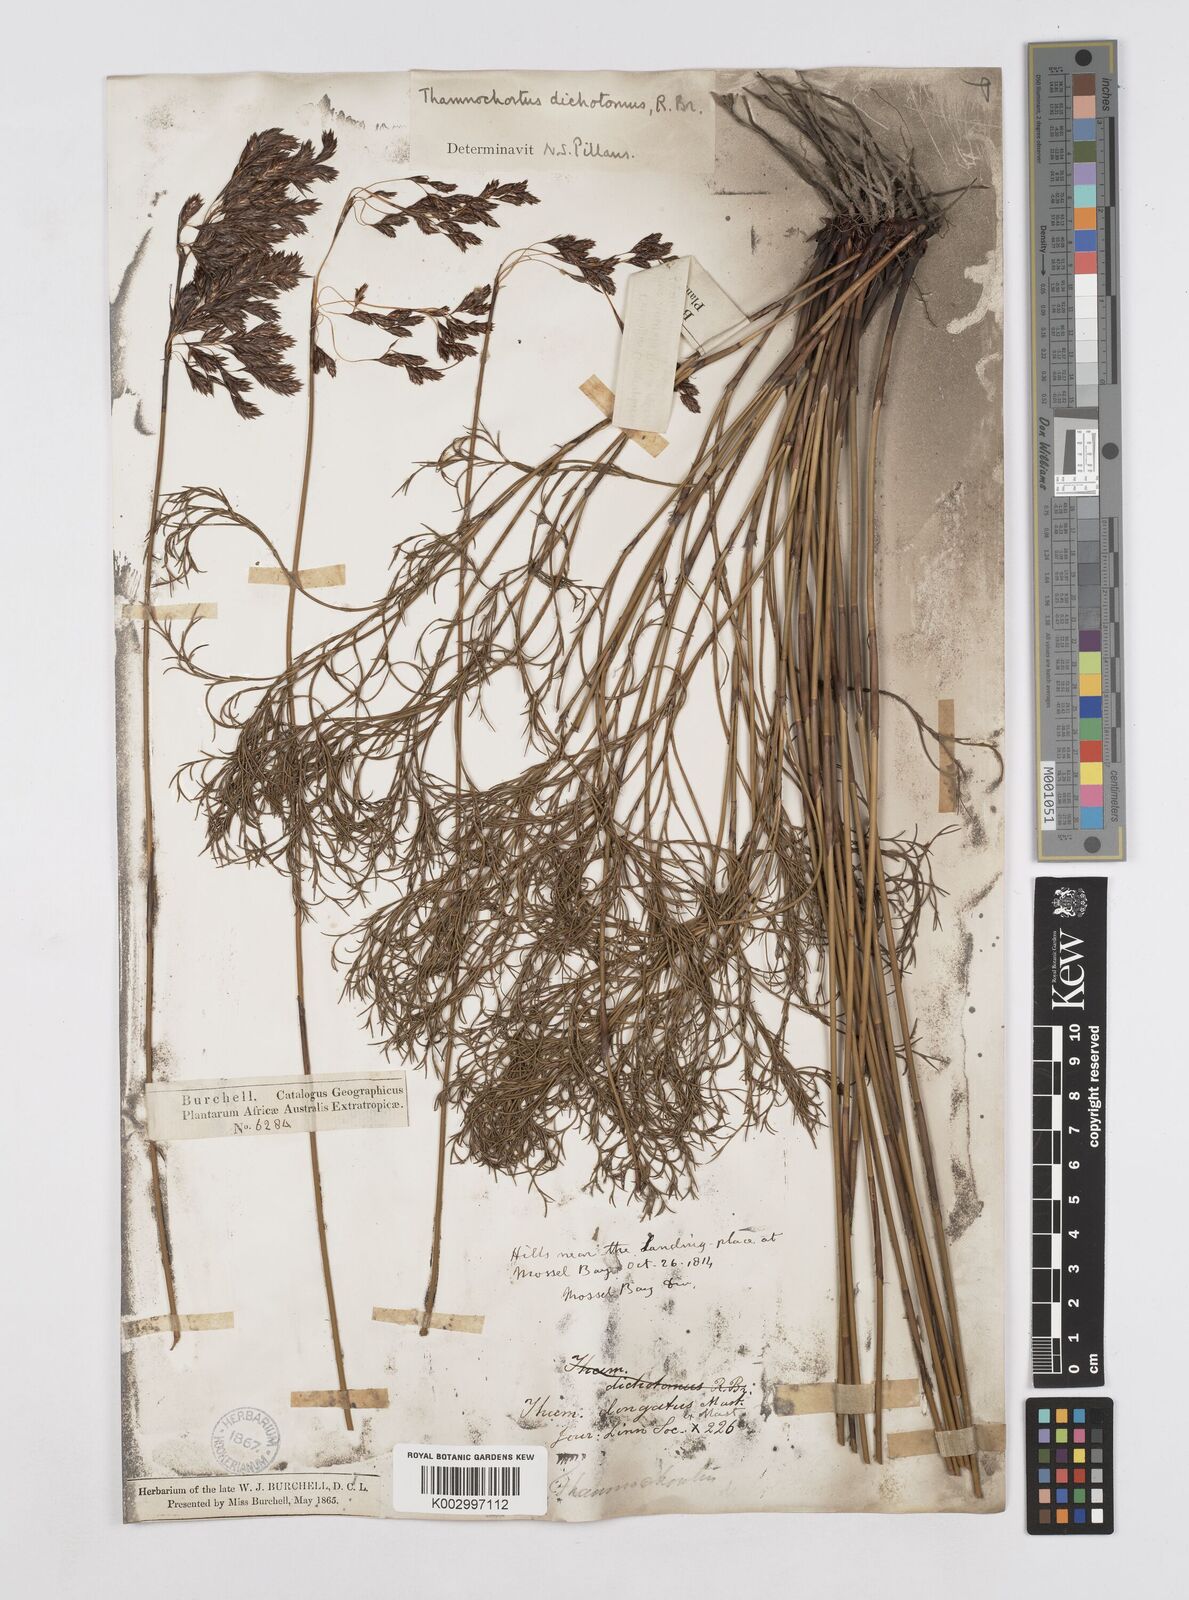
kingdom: Plantae
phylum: Tracheophyta
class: Liliopsida
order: Poales
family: Restionaceae
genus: Thamnochortus
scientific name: Thamnochortus muirii
